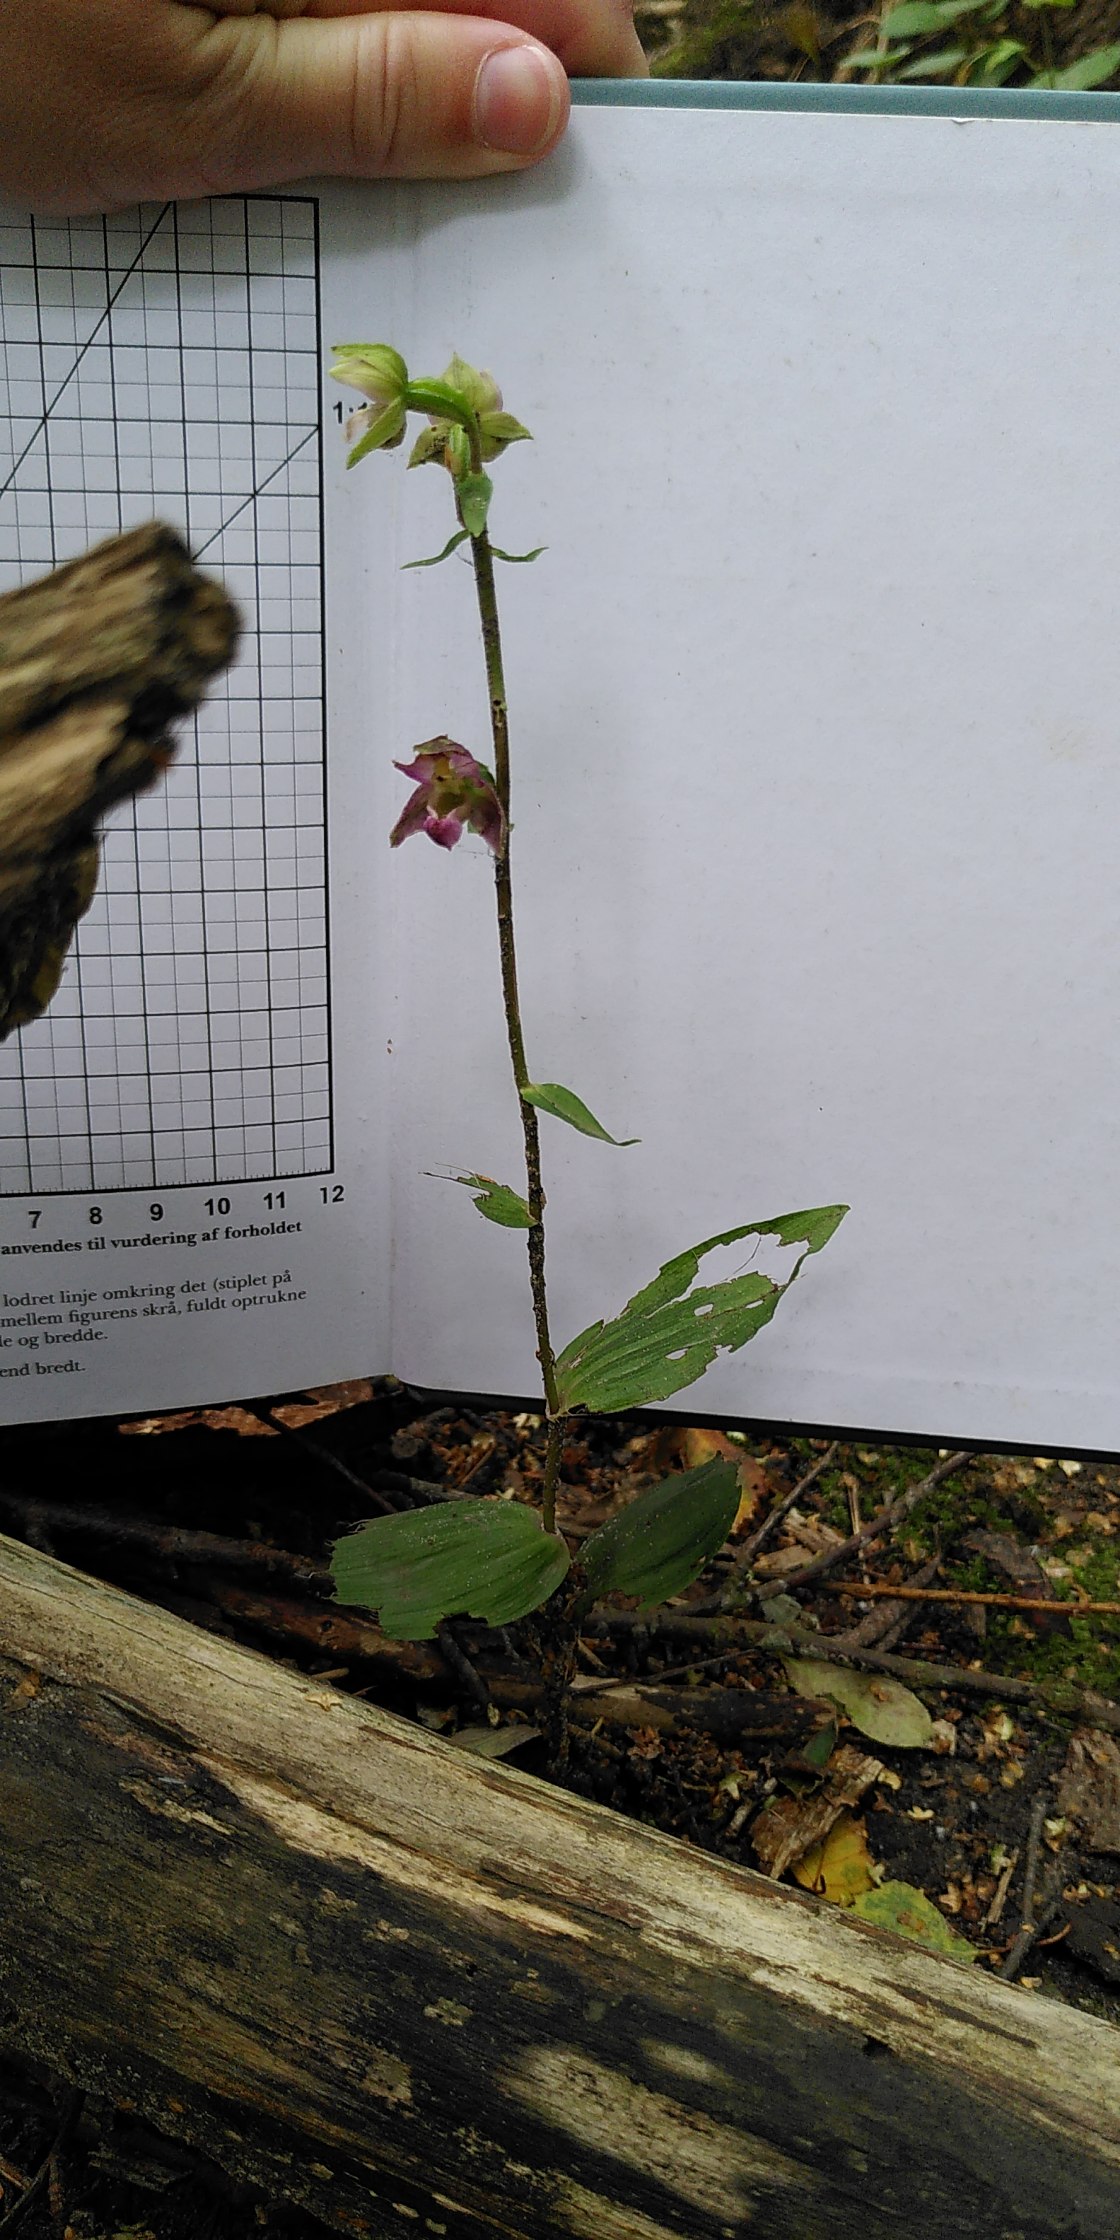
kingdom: Plantae
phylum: Tracheophyta
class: Liliopsida
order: Asparagales
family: Orchidaceae
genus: Epipactis
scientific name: Epipactis helleborine
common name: Skov-hullæbe
